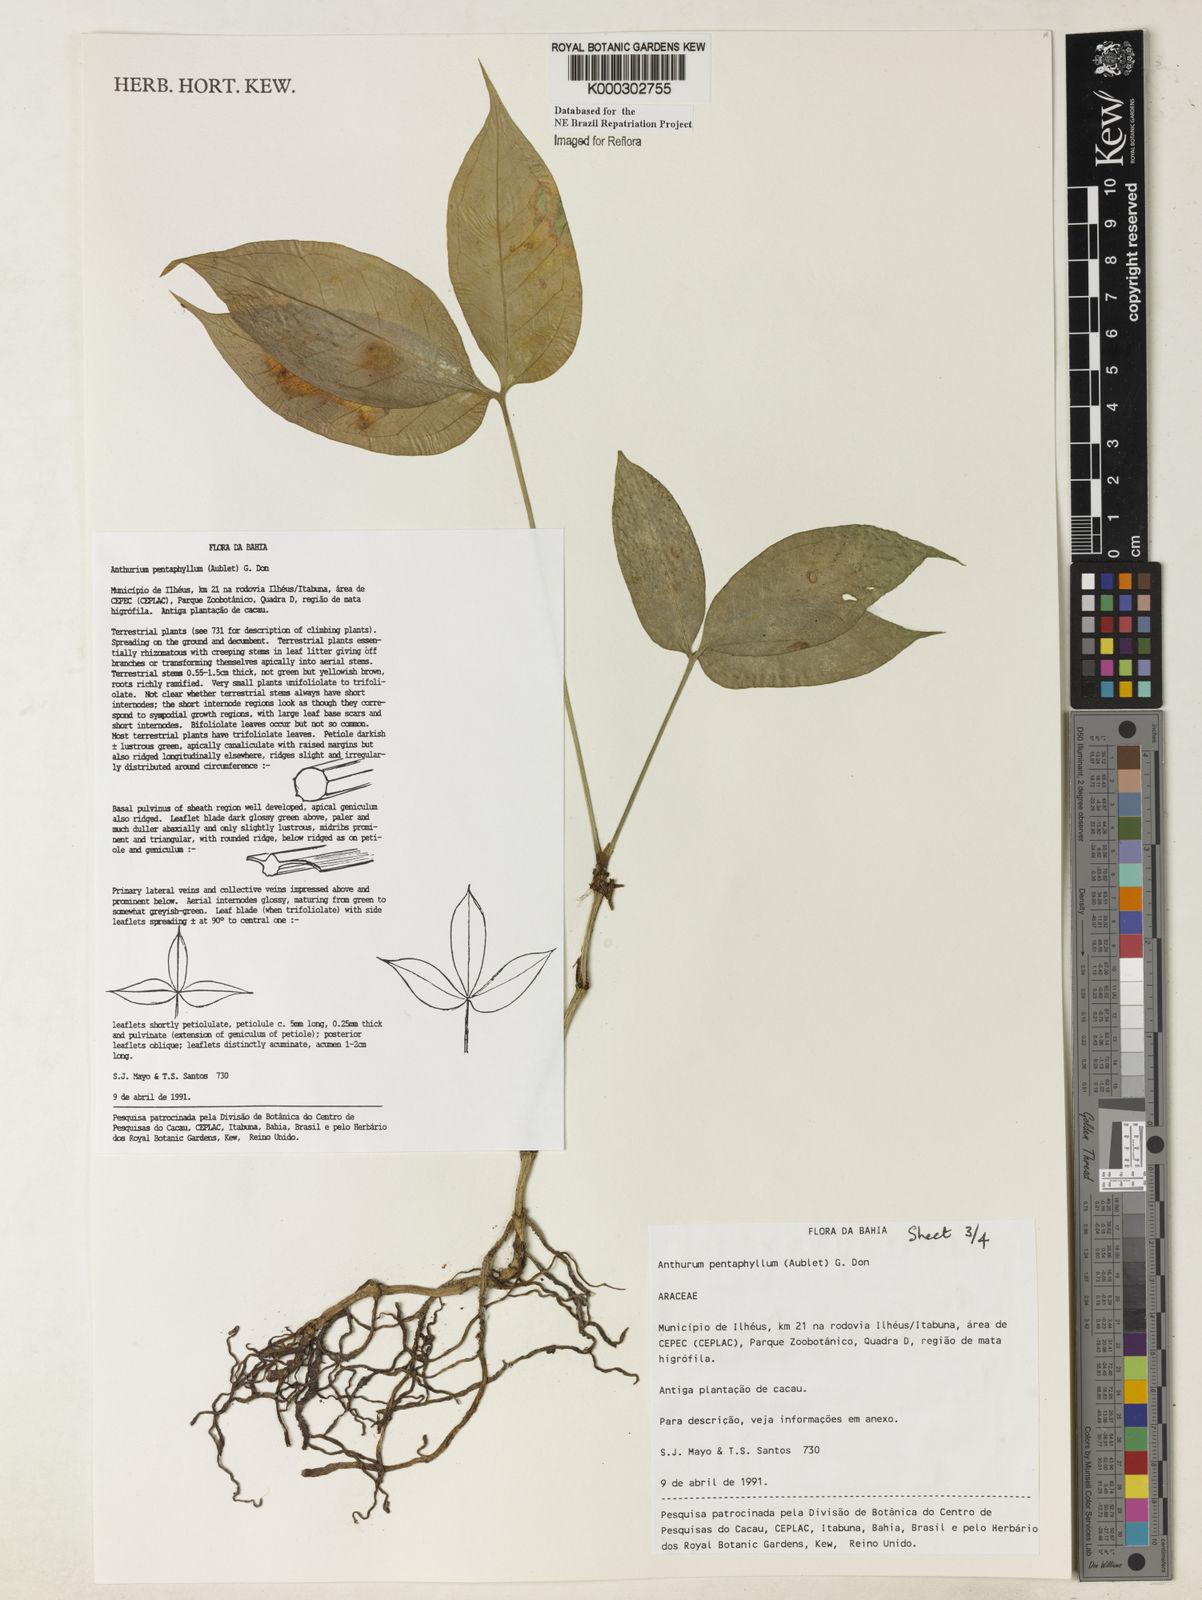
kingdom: Plantae
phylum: Tracheophyta
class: Liliopsida
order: Alismatales
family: Araceae
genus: Anthurium
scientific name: Anthurium pentaphyllum
